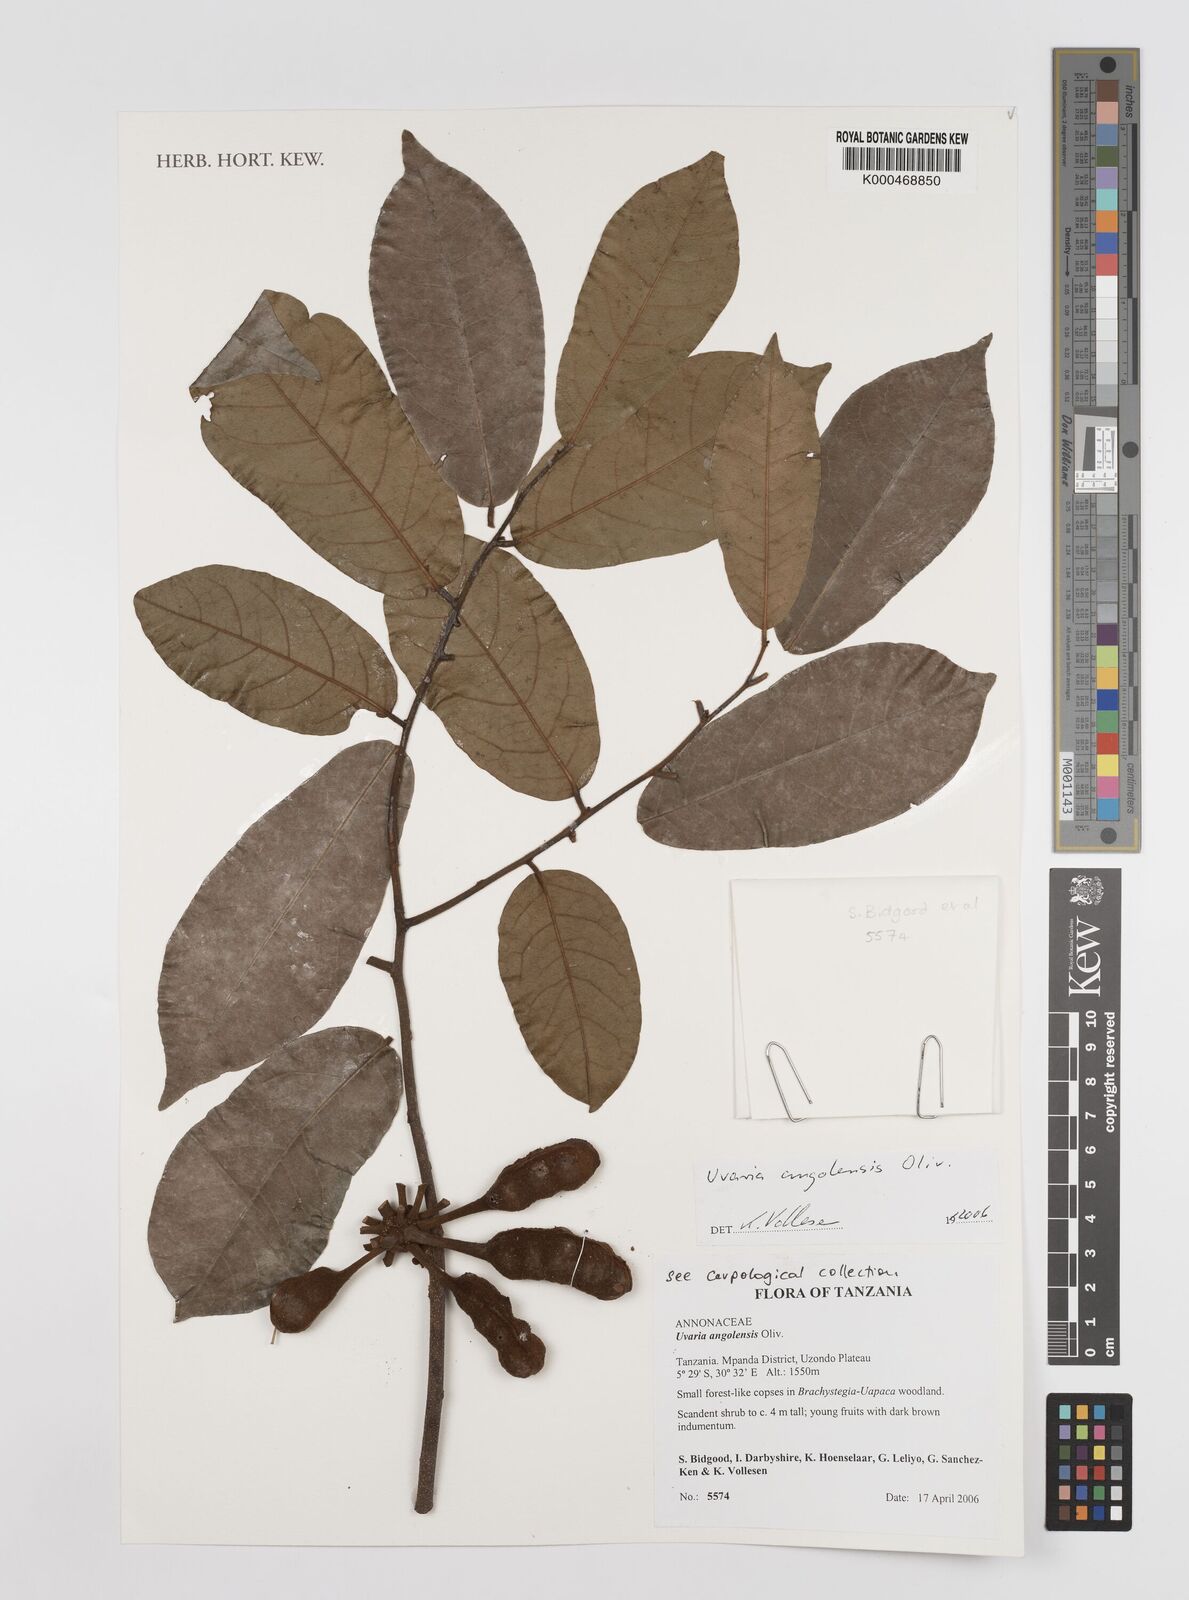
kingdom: Plantae
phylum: Tracheophyta
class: Magnoliopsida
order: Magnoliales
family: Annonaceae
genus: Uvaria
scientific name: Uvaria angolensis
